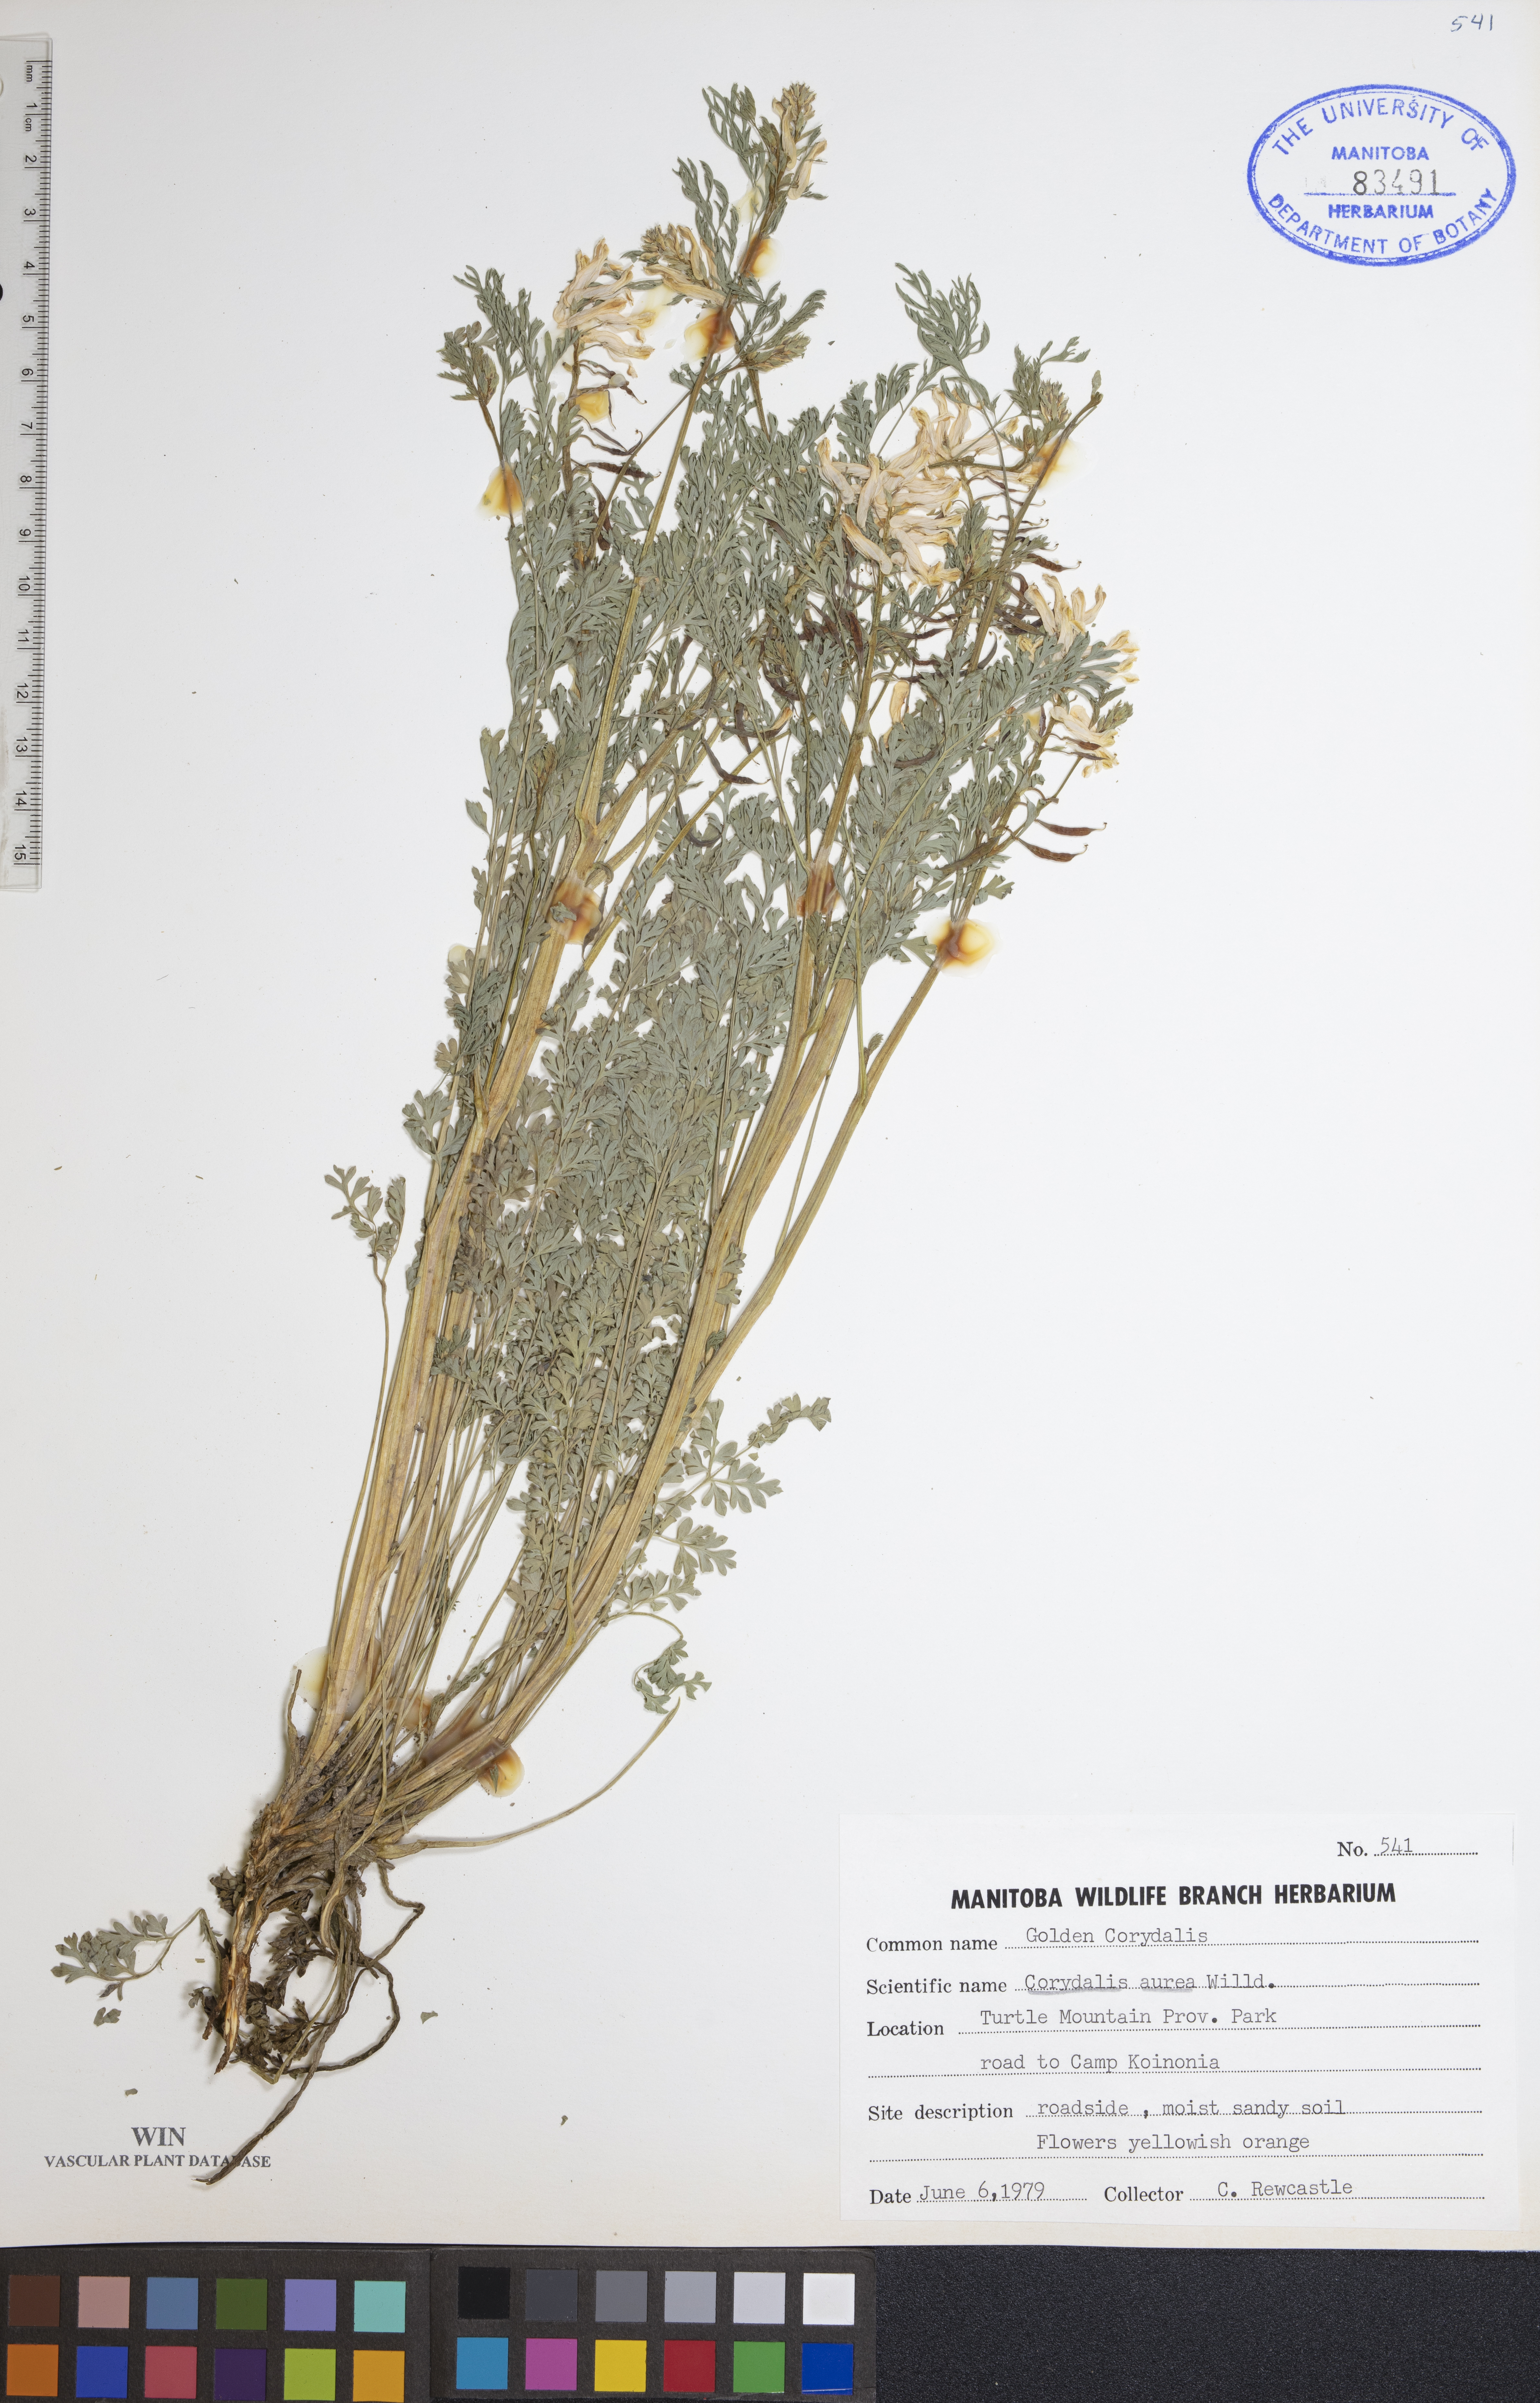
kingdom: Plantae
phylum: Tracheophyta
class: Magnoliopsida
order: Ranunculales
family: Papaveraceae
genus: Corydalis
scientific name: Corydalis aurea
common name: Golden corydalis
